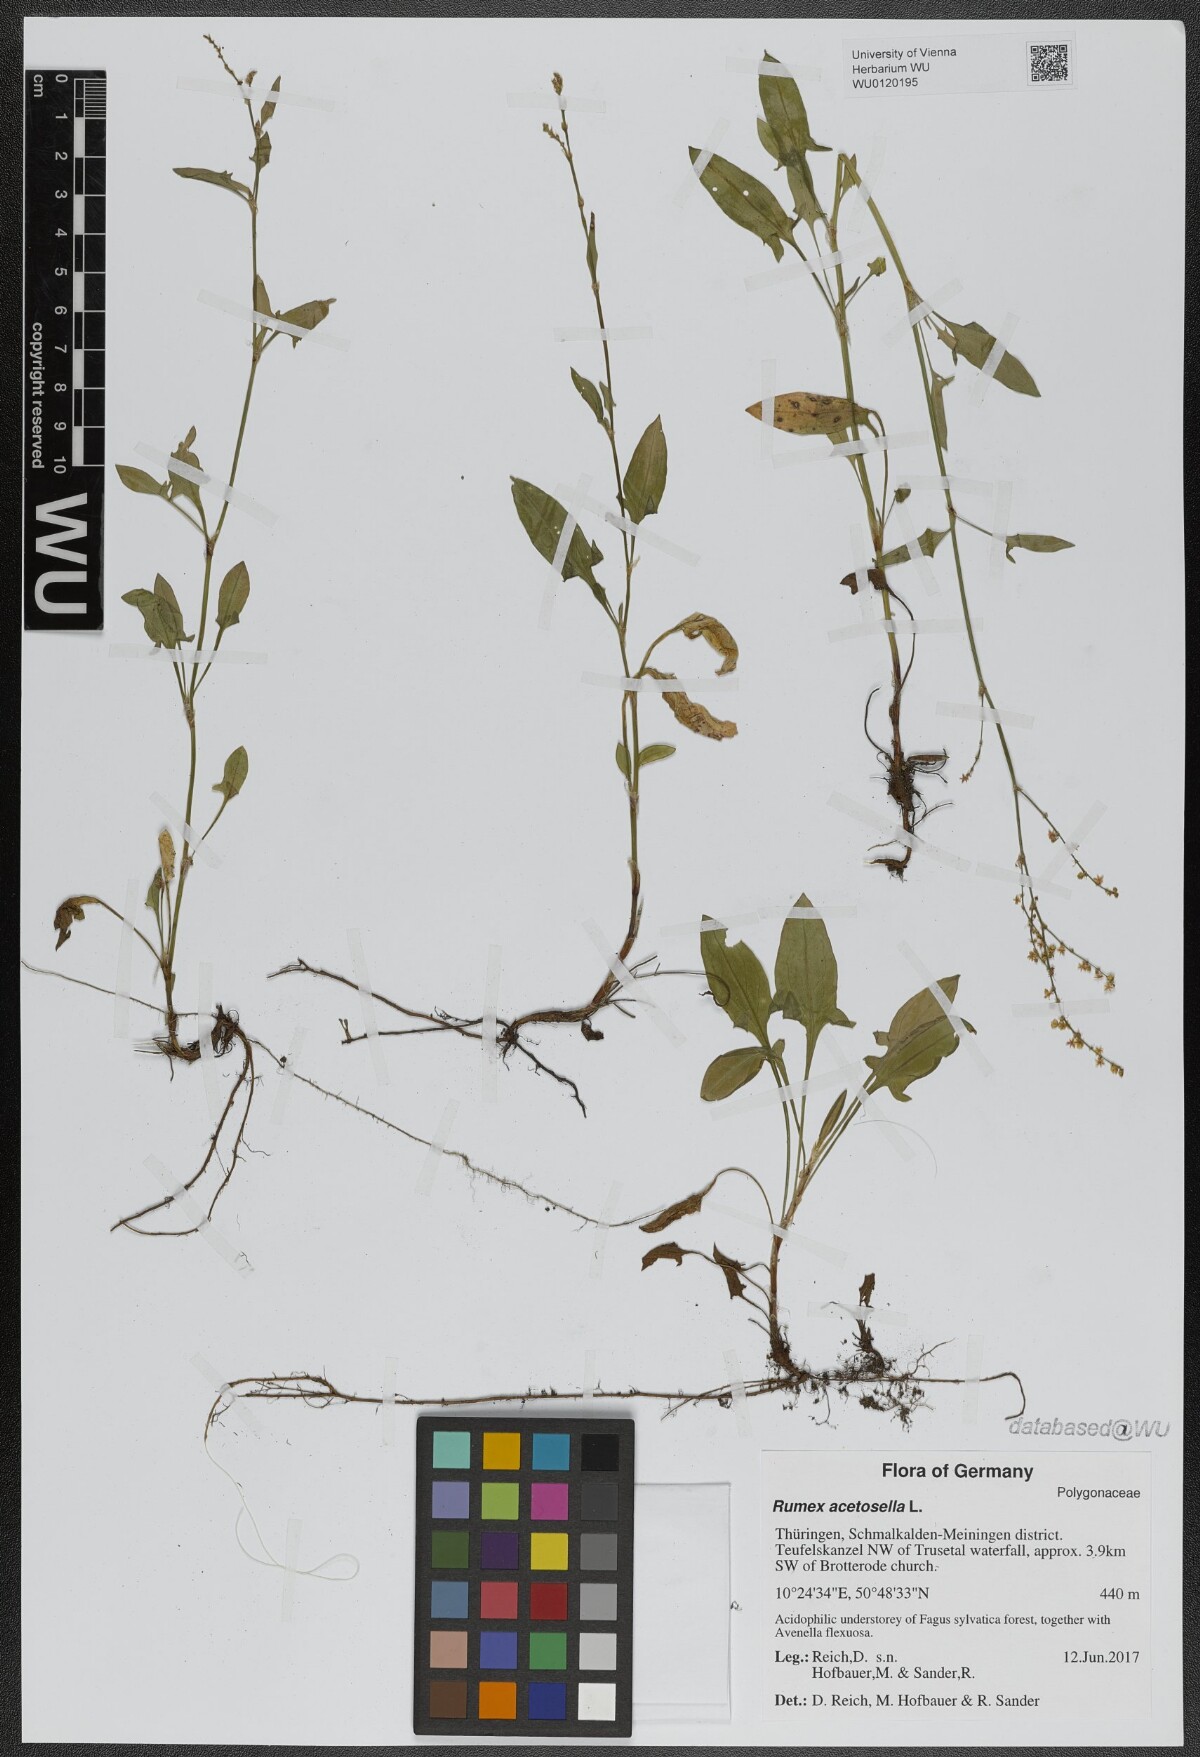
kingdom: Plantae
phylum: Tracheophyta
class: Magnoliopsida
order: Caryophyllales
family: Polygonaceae
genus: Rumex
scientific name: Rumex acetosella
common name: Common sheep sorrel
